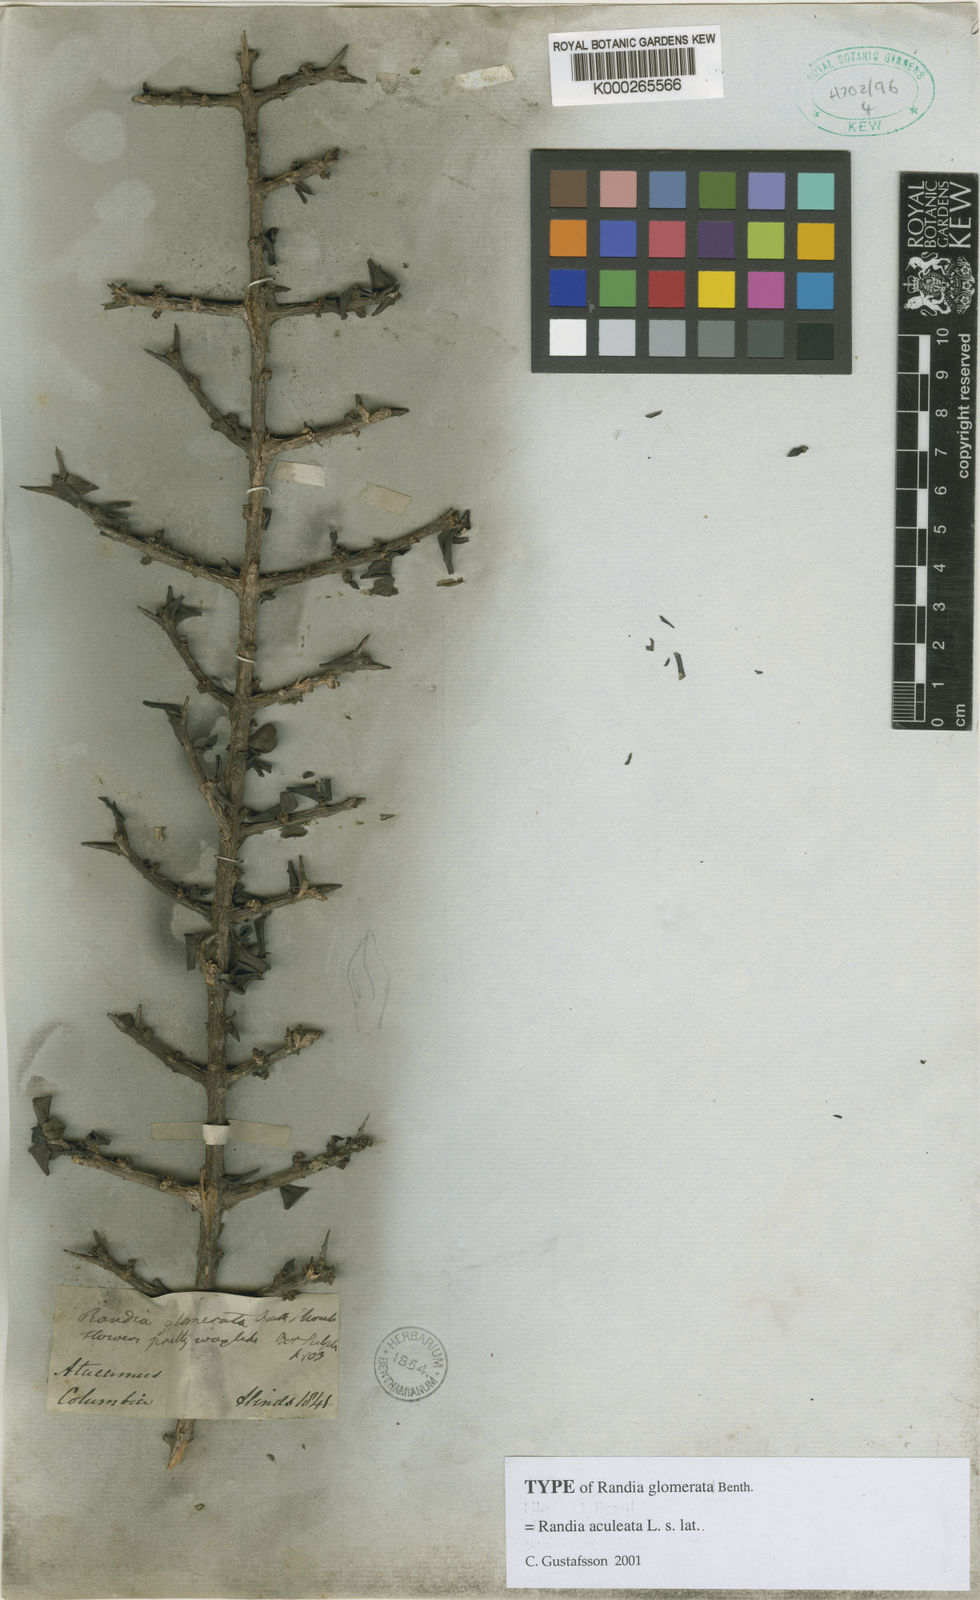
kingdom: Plantae
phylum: Tracheophyta
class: Magnoliopsida
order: Gentianales
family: Rubiaceae
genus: Randia
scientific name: Randia aculeata
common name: Inkberry
